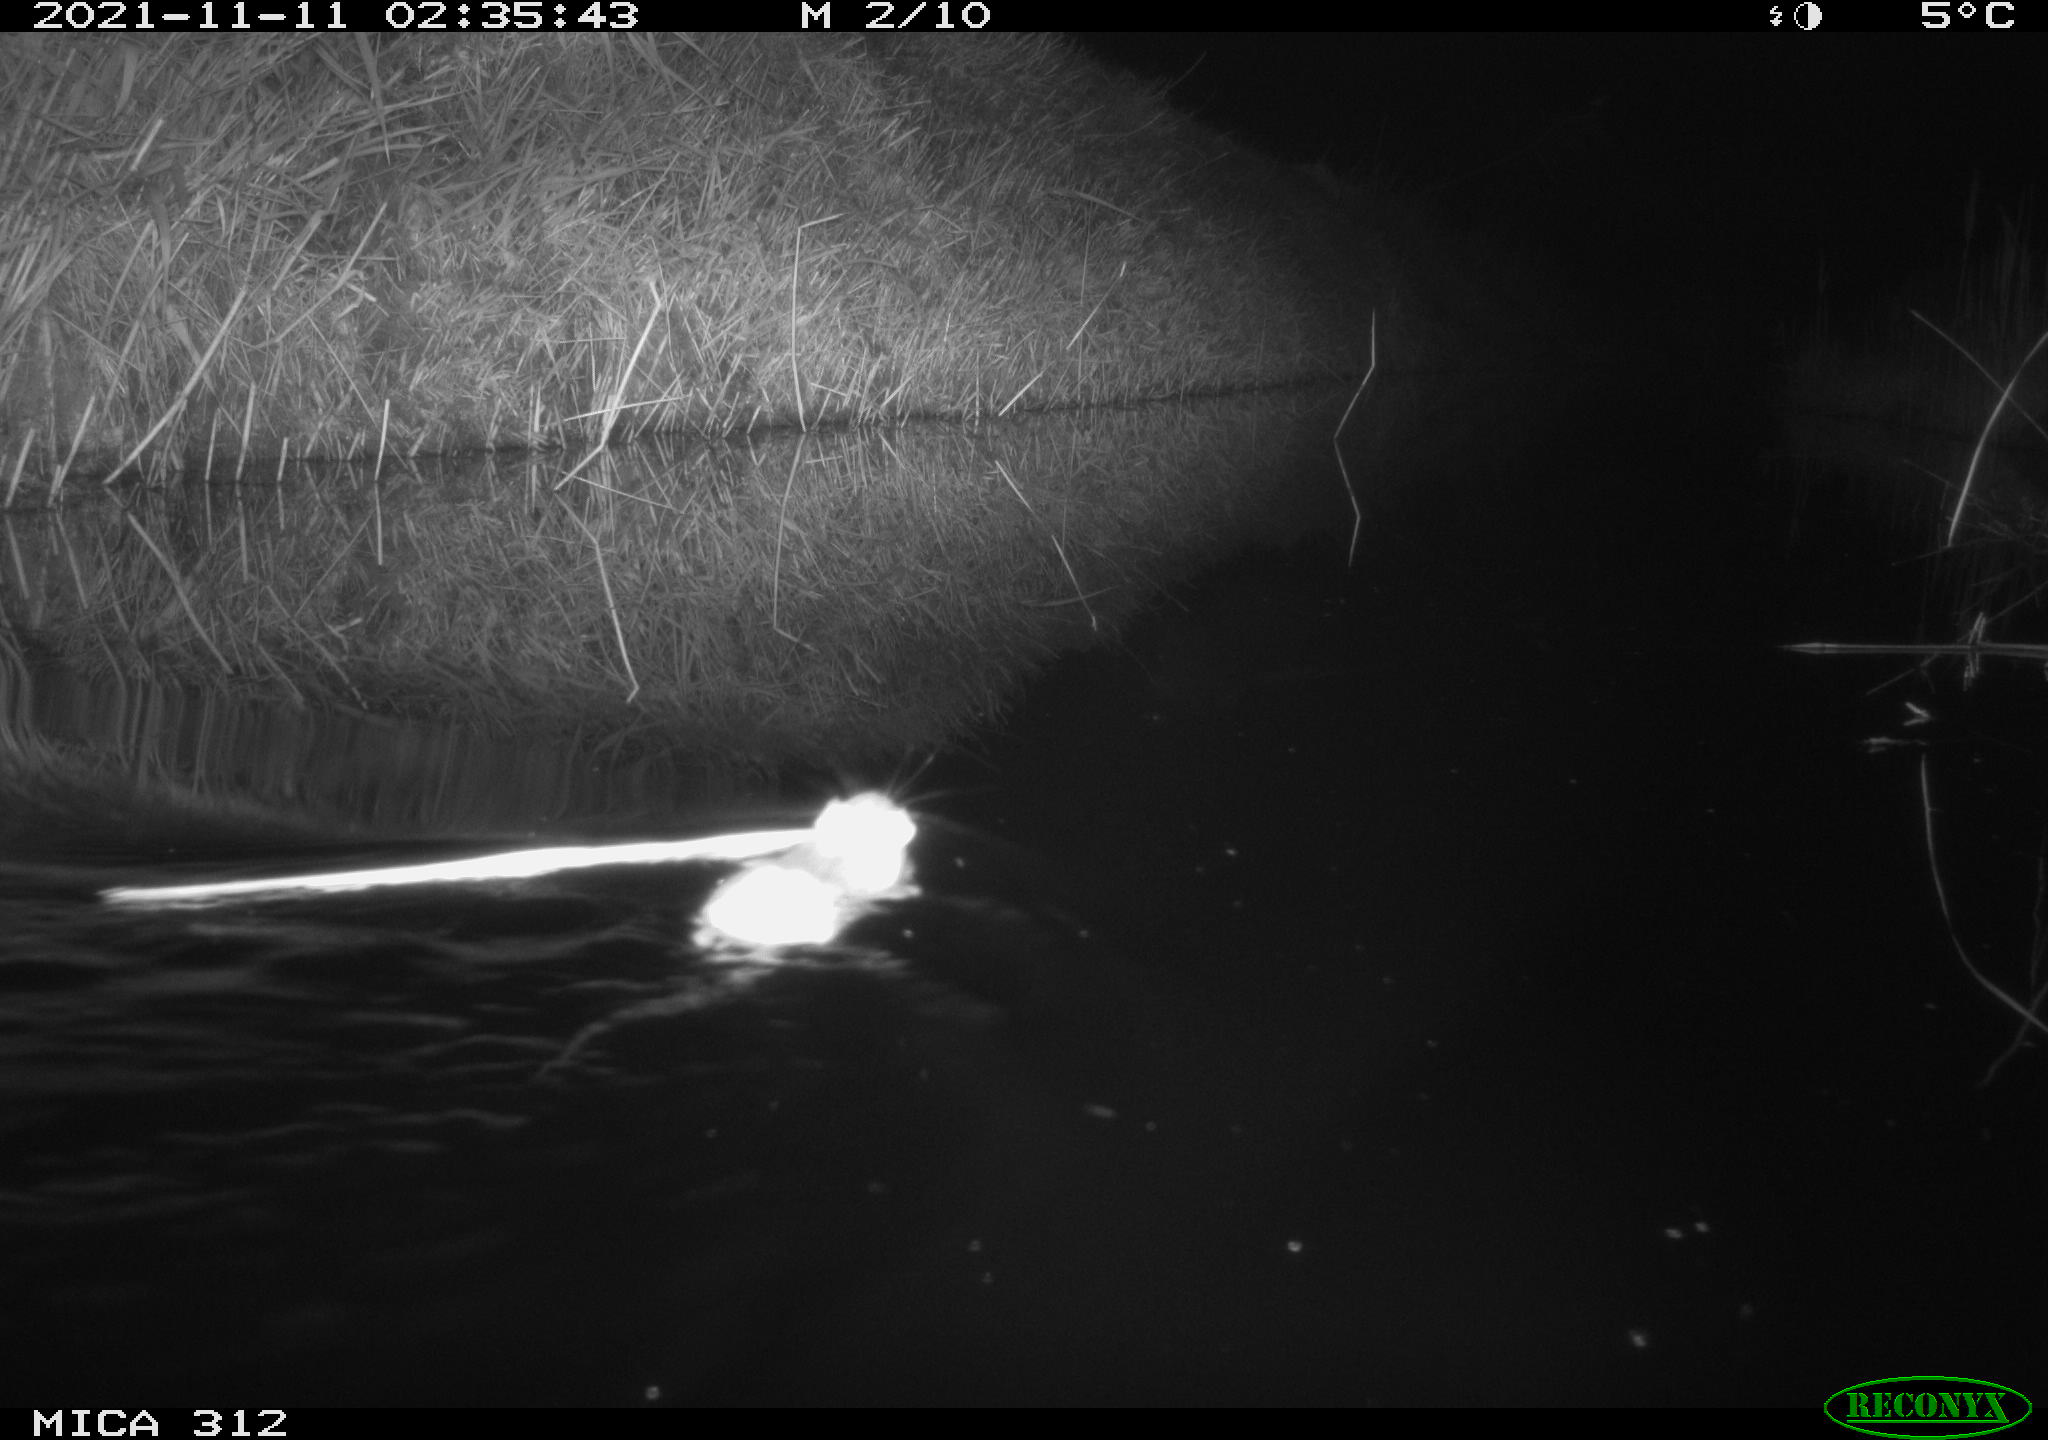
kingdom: Animalia
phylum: Chordata
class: Mammalia
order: Rodentia
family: Muridae
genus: Rattus
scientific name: Rattus norvegicus
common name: Brown rat
